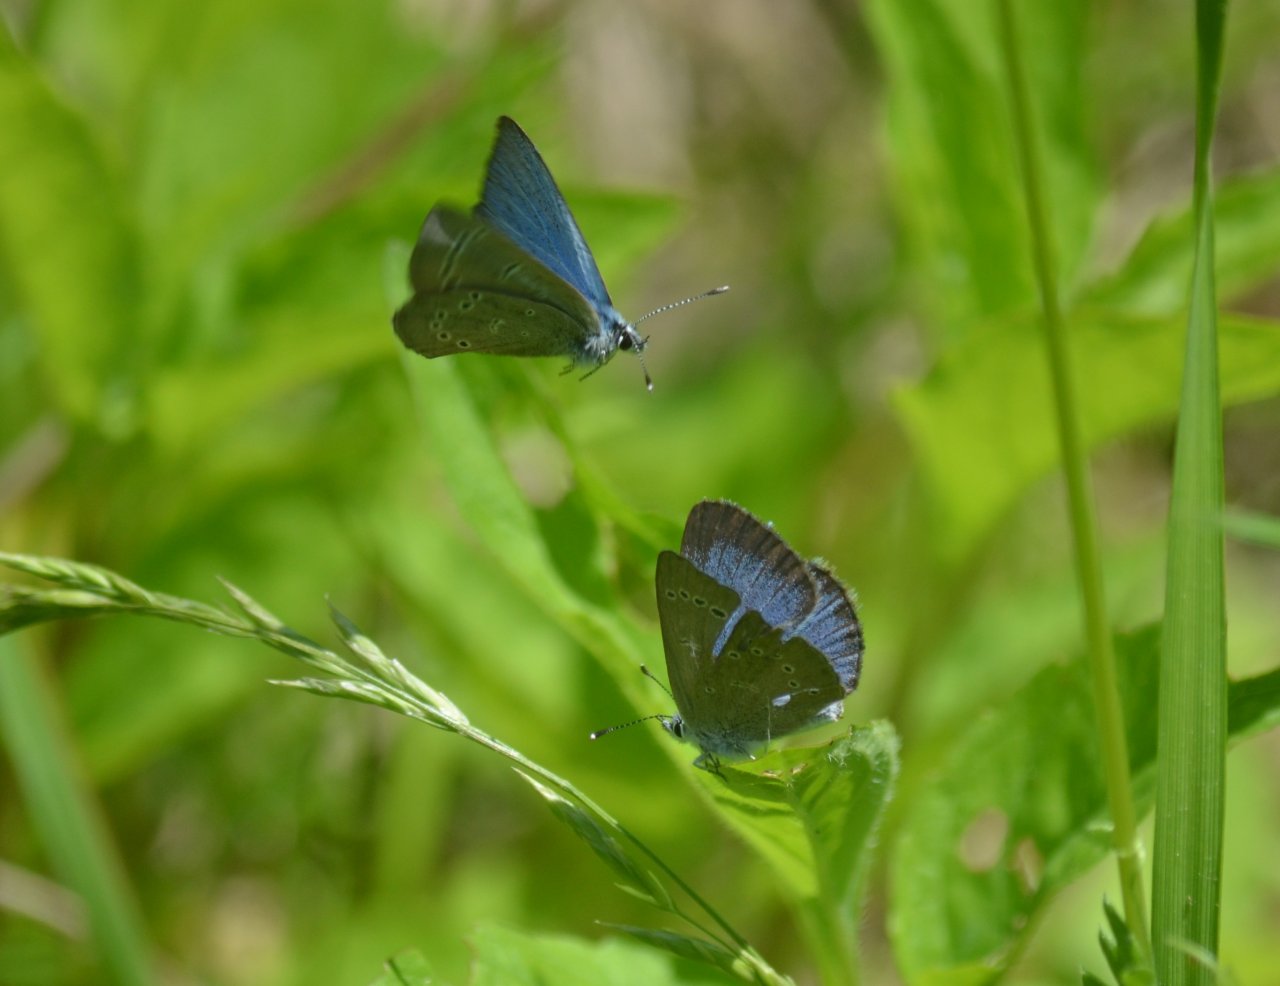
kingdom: Animalia
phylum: Arthropoda
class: Insecta
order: Lepidoptera
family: Lycaenidae
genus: Glaucopsyche
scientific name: Glaucopsyche lygdamus
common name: Silvery Blue
